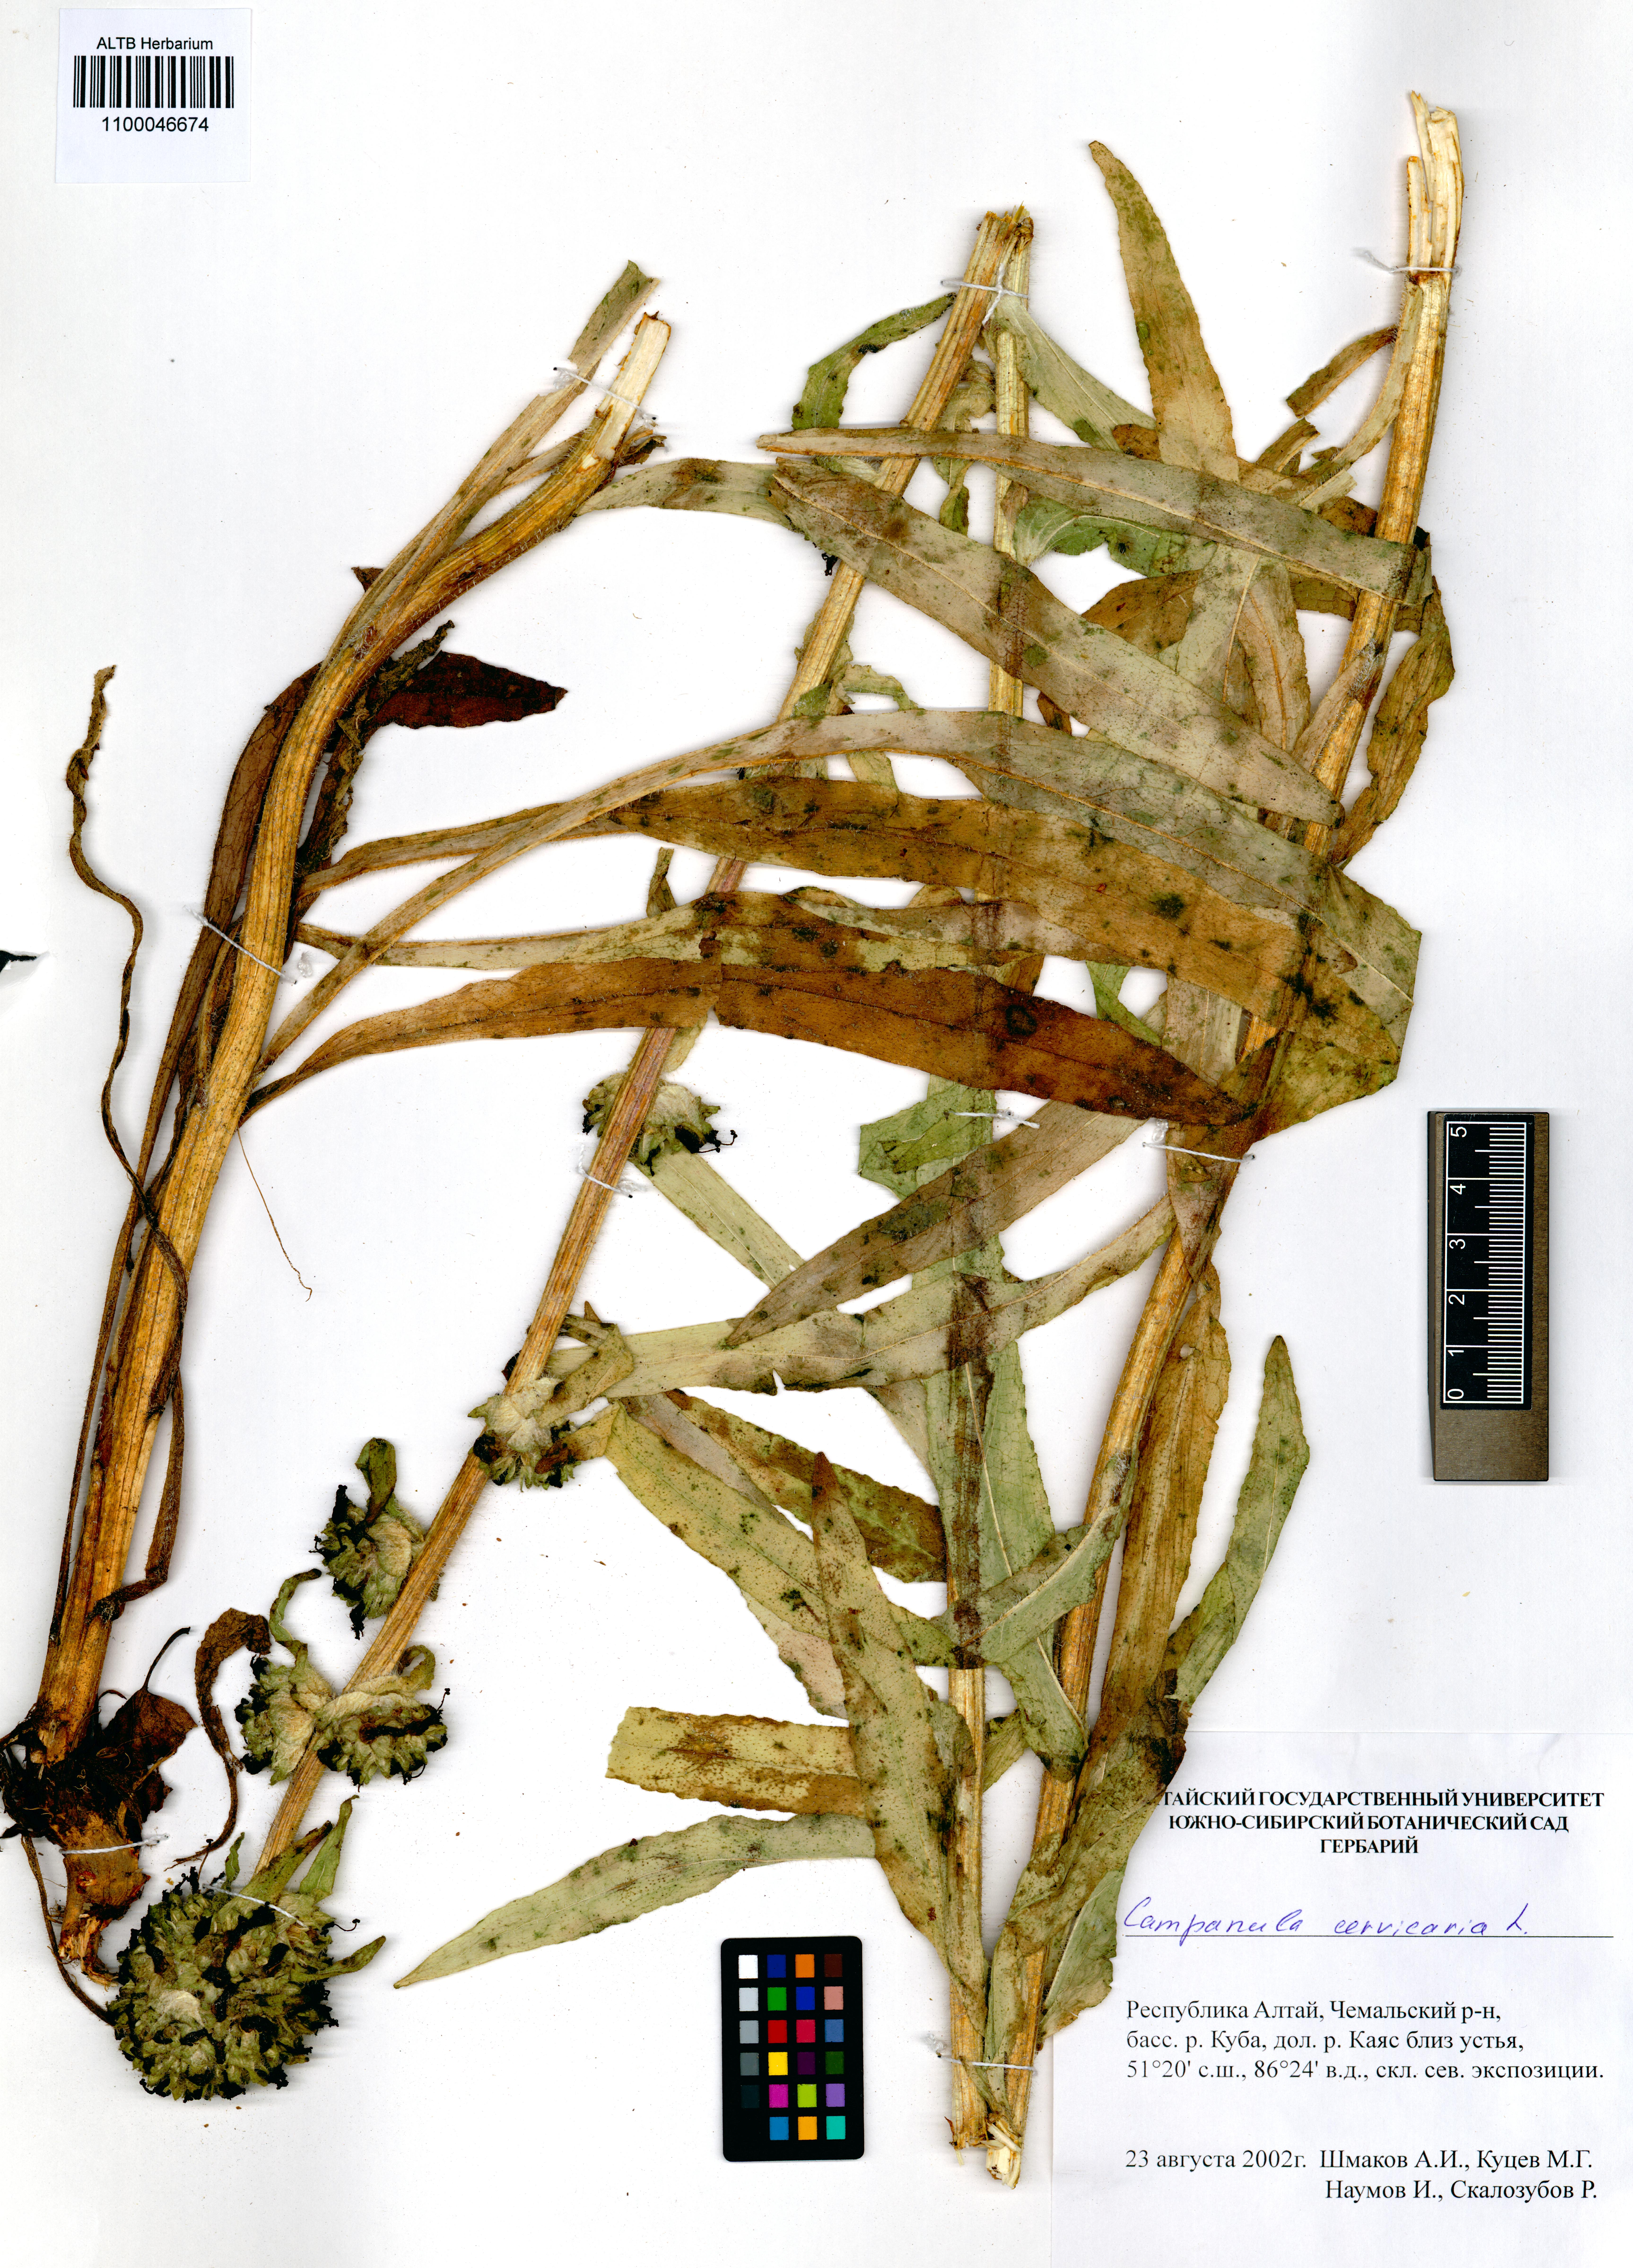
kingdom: Plantae
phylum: Tracheophyta
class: Magnoliopsida
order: Asterales
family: Campanulaceae
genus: Campanula
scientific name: Campanula cervicaria
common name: Bristly bellflower
